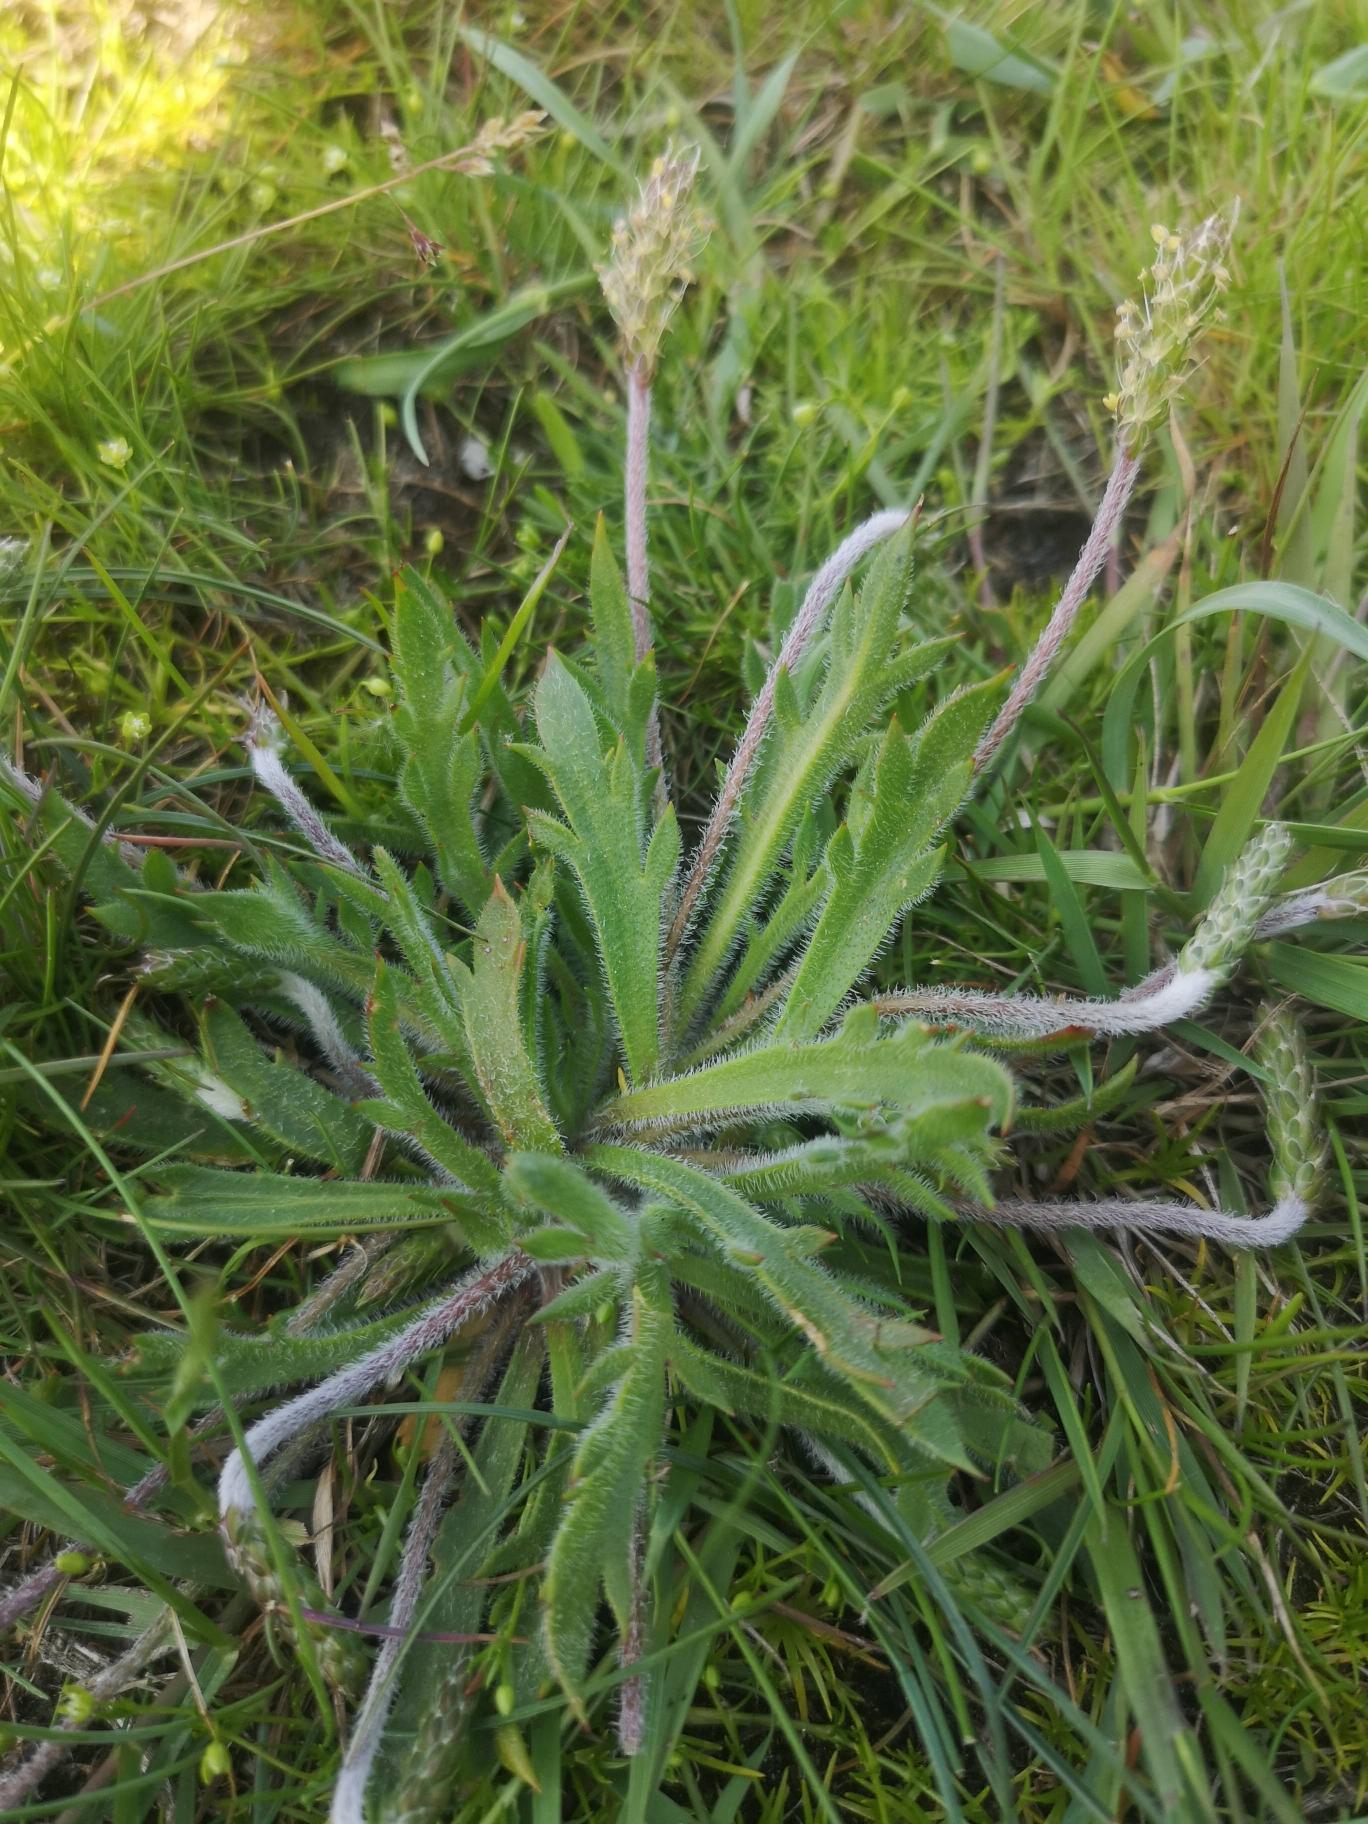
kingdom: Plantae
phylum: Tracheophyta
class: Magnoliopsida
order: Lamiales
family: Plantaginaceae
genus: Plantago
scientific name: Plantago coronopus
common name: Fliget vejbred
